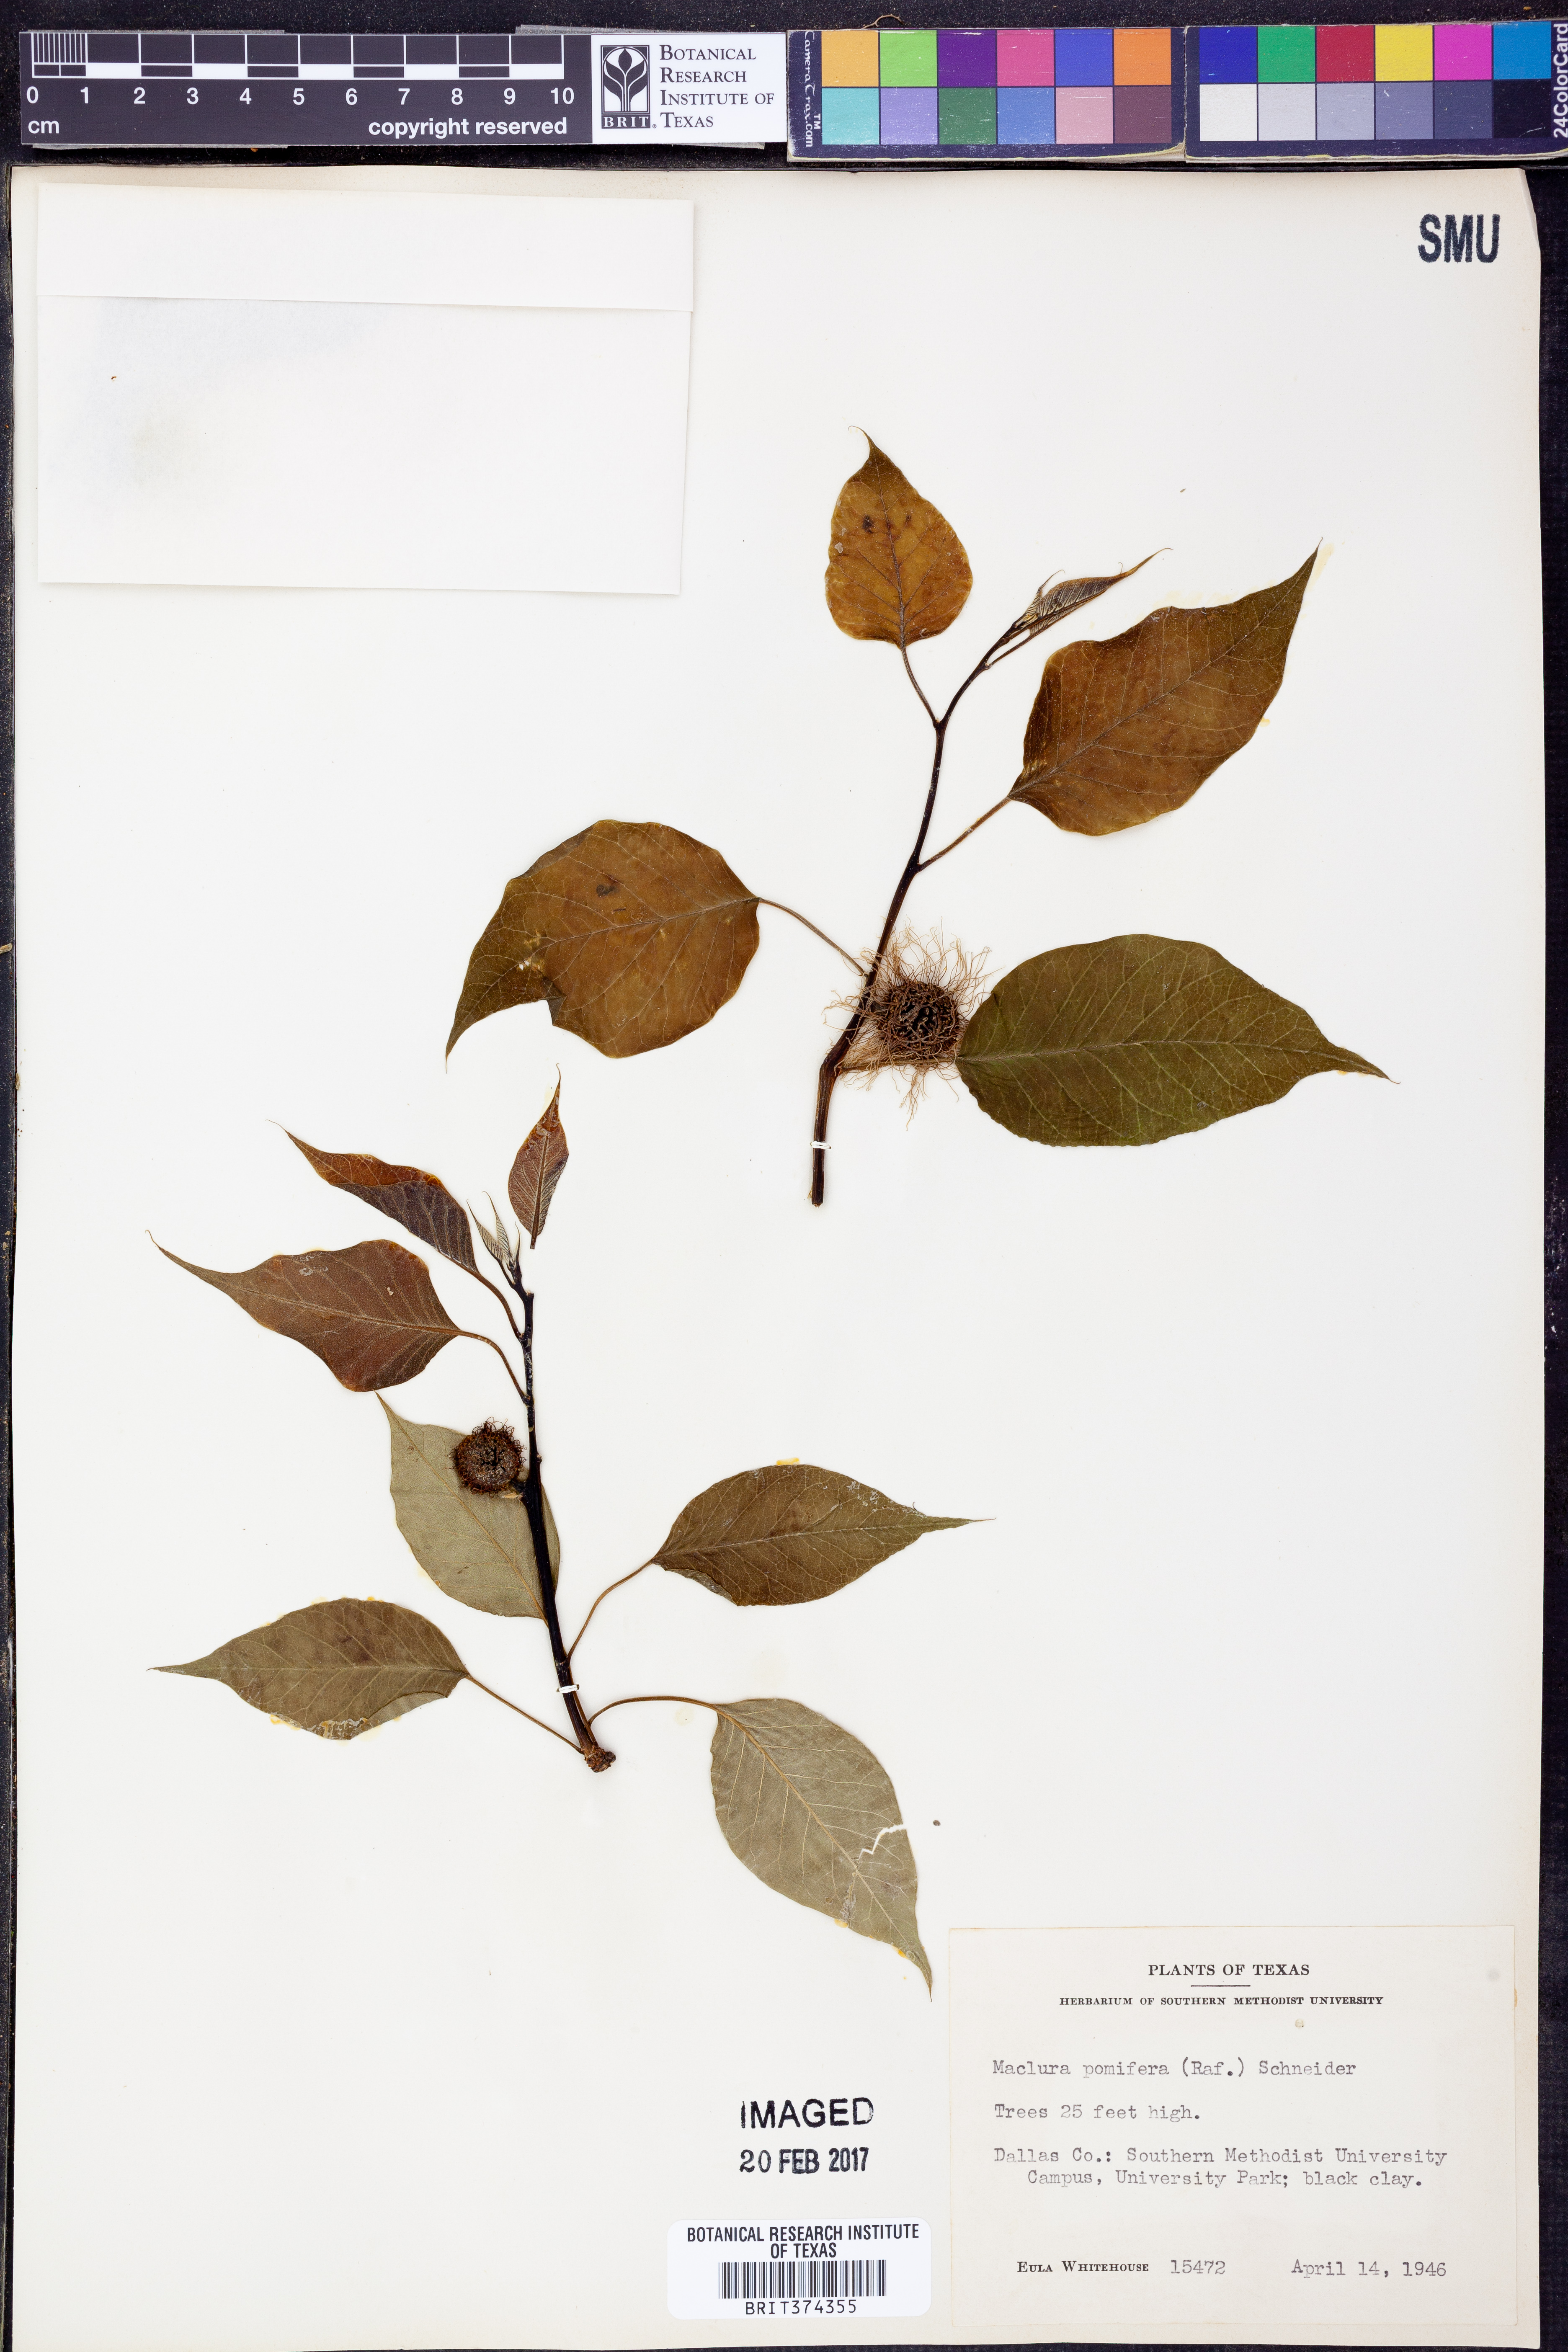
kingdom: Plantae
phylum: Tracheophyta
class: Magnoliopsida
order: Rosales
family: Moraceae
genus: Maclura
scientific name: Maclura pomifera
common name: Osage-orange
